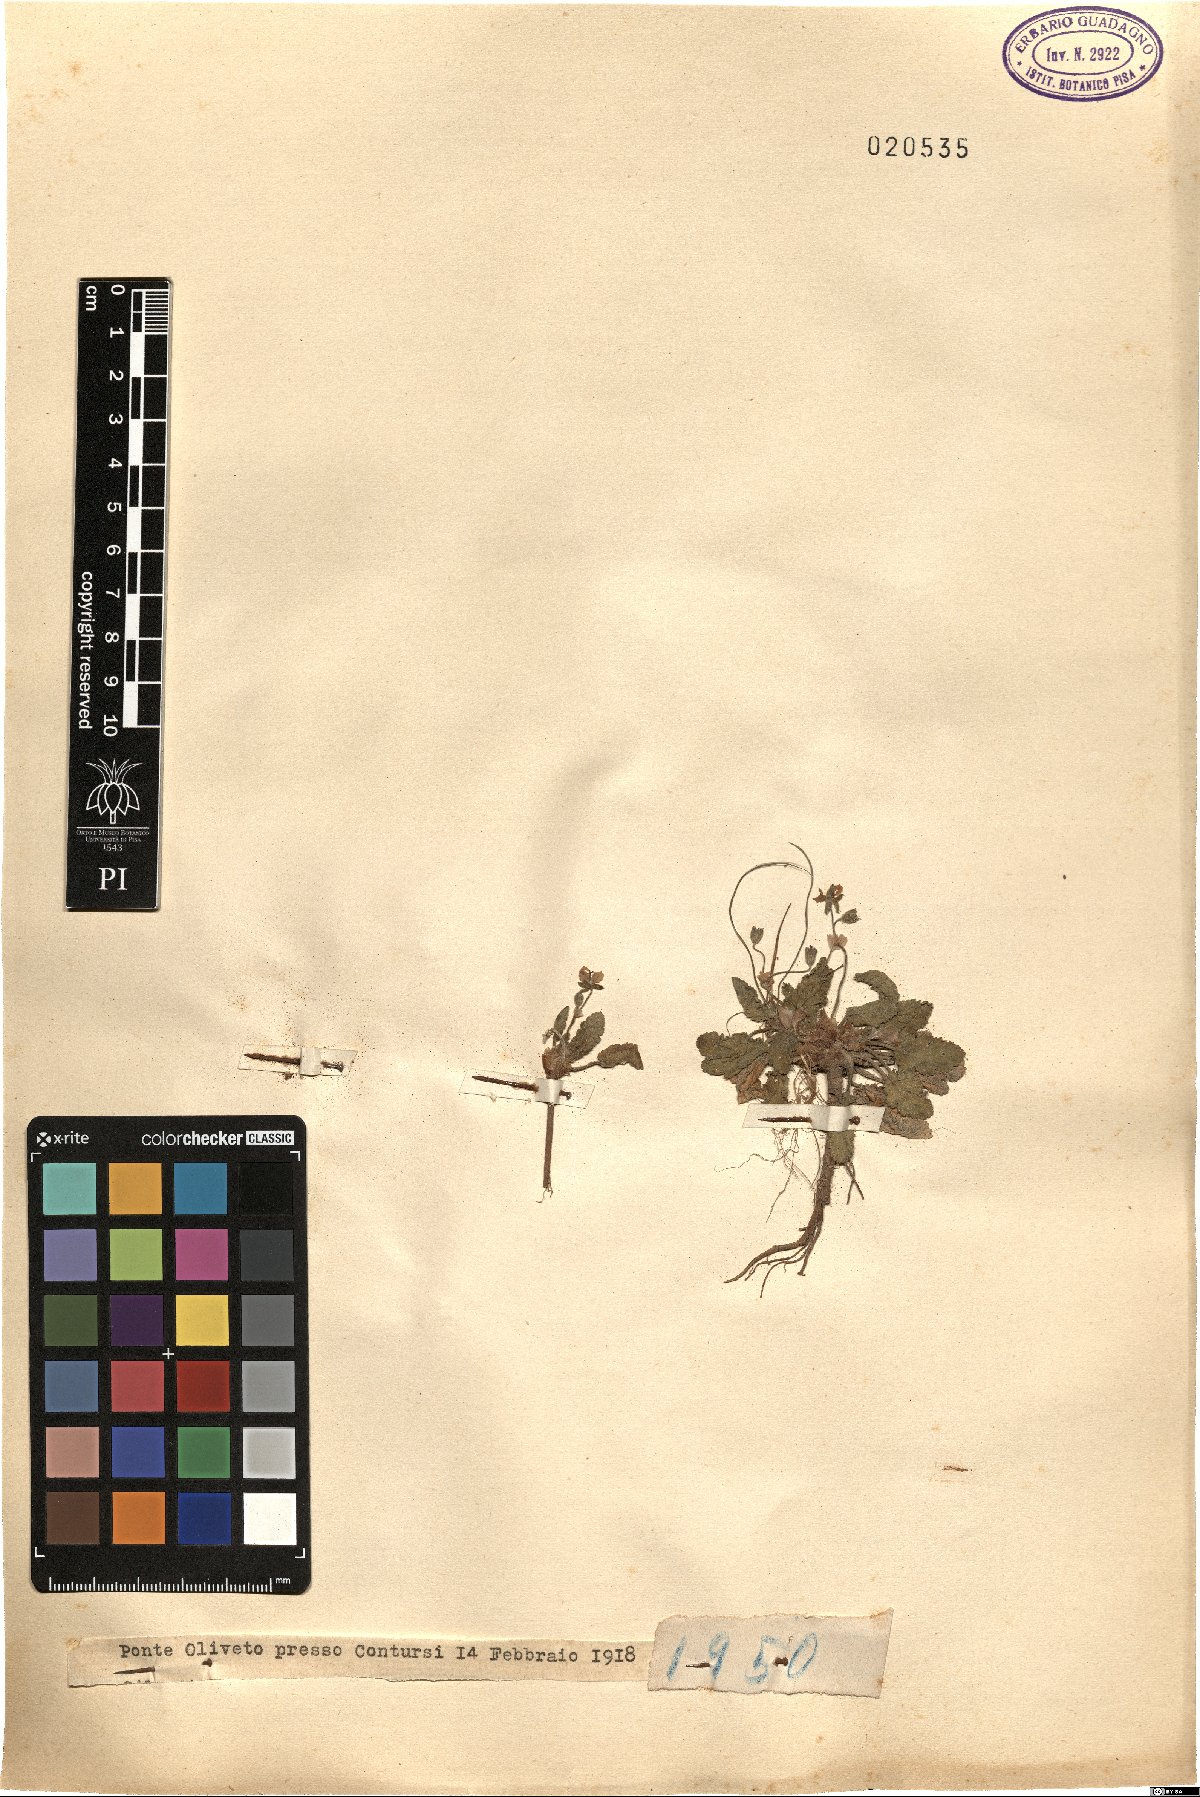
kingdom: Plantae
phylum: Tracheophyta
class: Magnoliopsida
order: Geraniales
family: Geraniaceae
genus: Erodium
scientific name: Erodium
